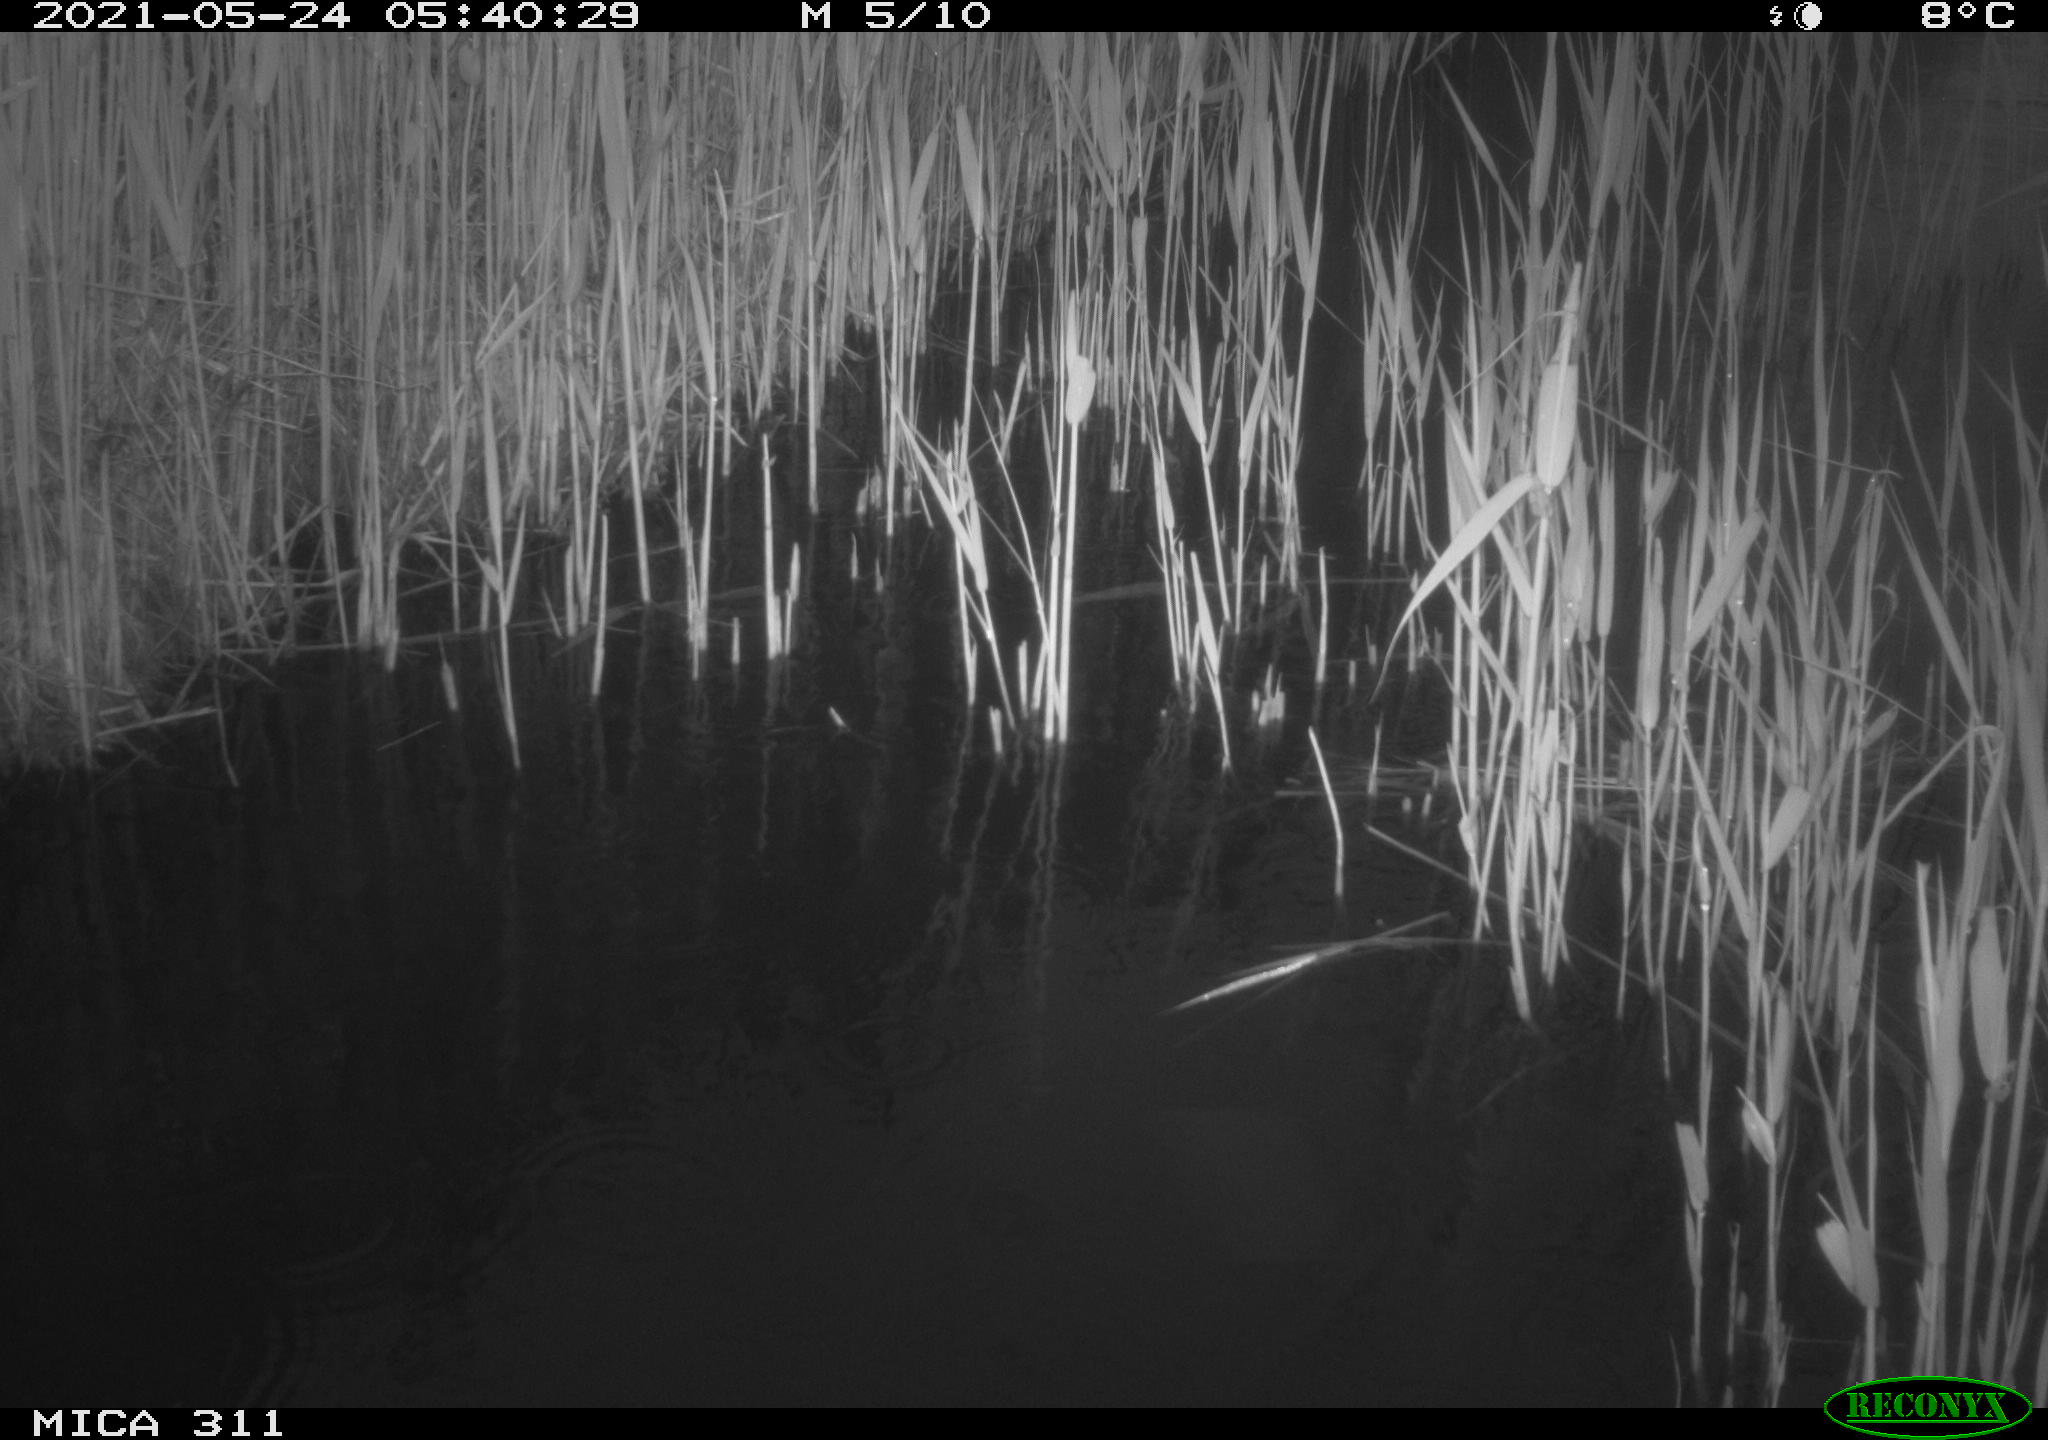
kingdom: Animalia
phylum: Chordata
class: Aves
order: Gruiformes
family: Rallidae
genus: Gallinula
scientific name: Gallinula chloropus
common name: Common moorhen
